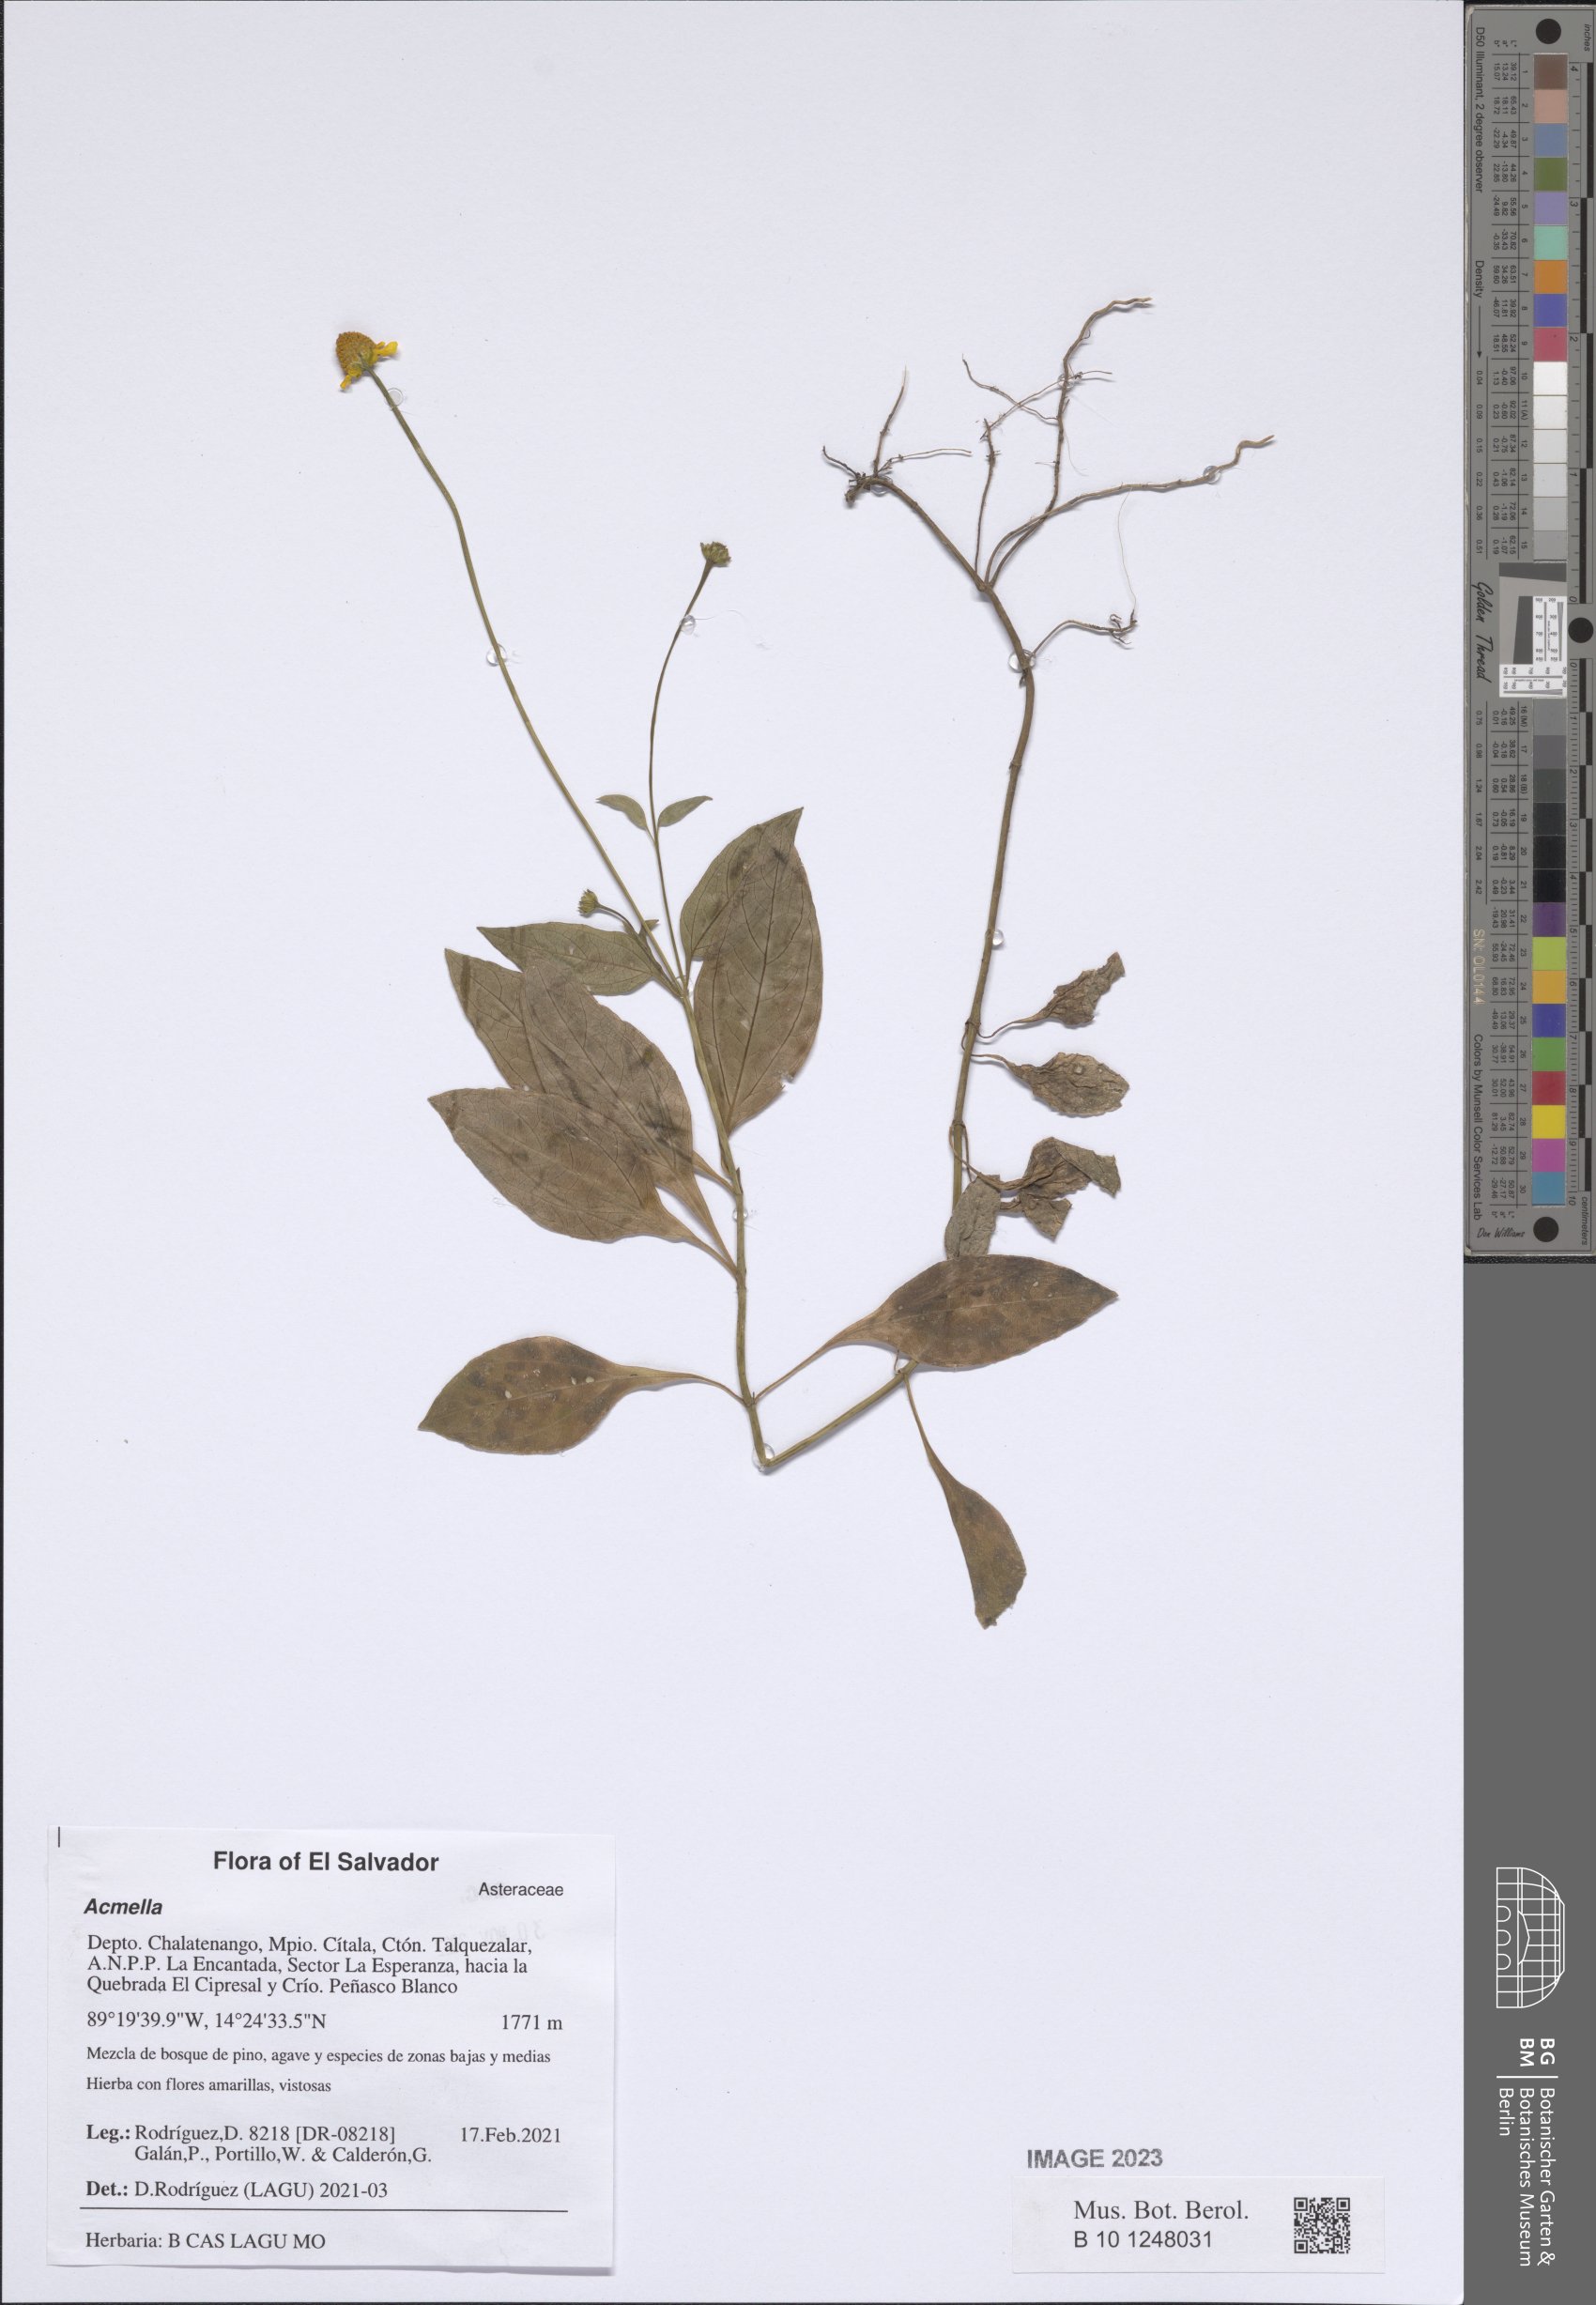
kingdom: Plantae
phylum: Tracheophyta
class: Magnoliopsida
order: Asterales
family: Asteraceae
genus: Acmella
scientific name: Acmella
